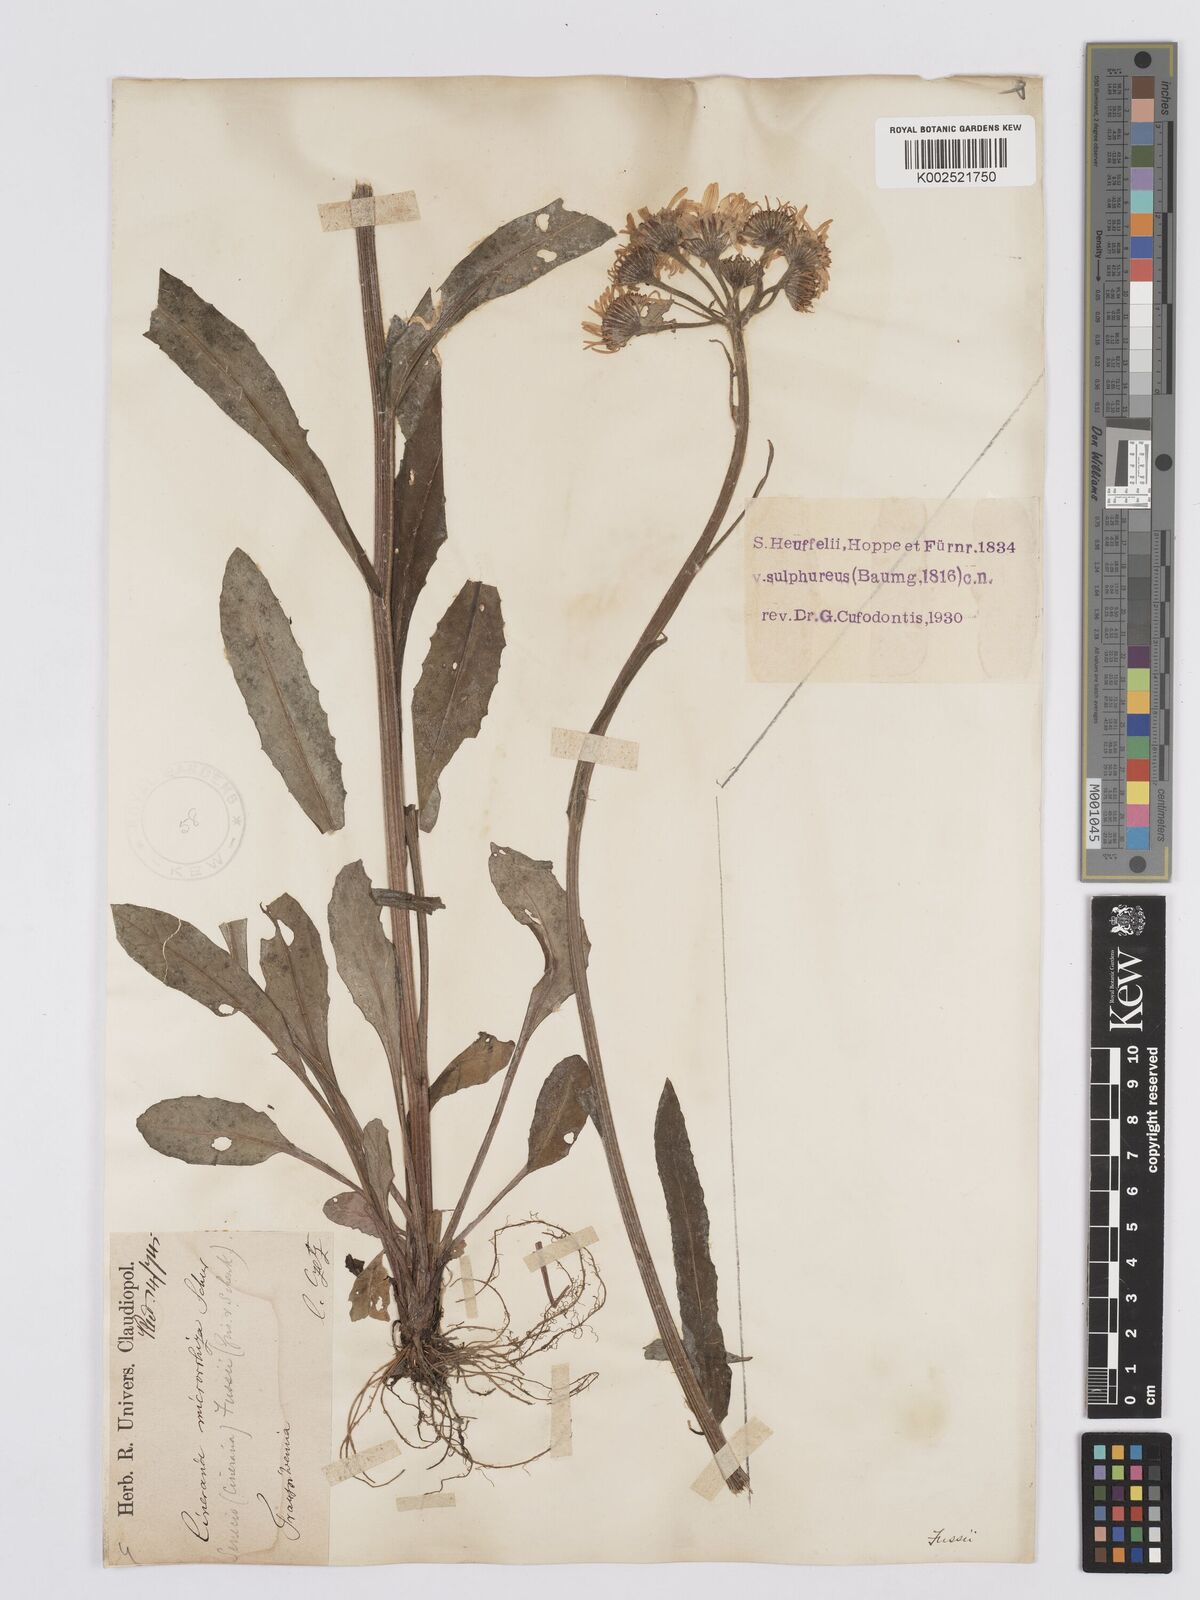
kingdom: Plantae
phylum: Tracheophyta
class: Magnoliopsida
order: Asterales
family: Asteraceae
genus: Tephroseris
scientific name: Tephroseris papposa
